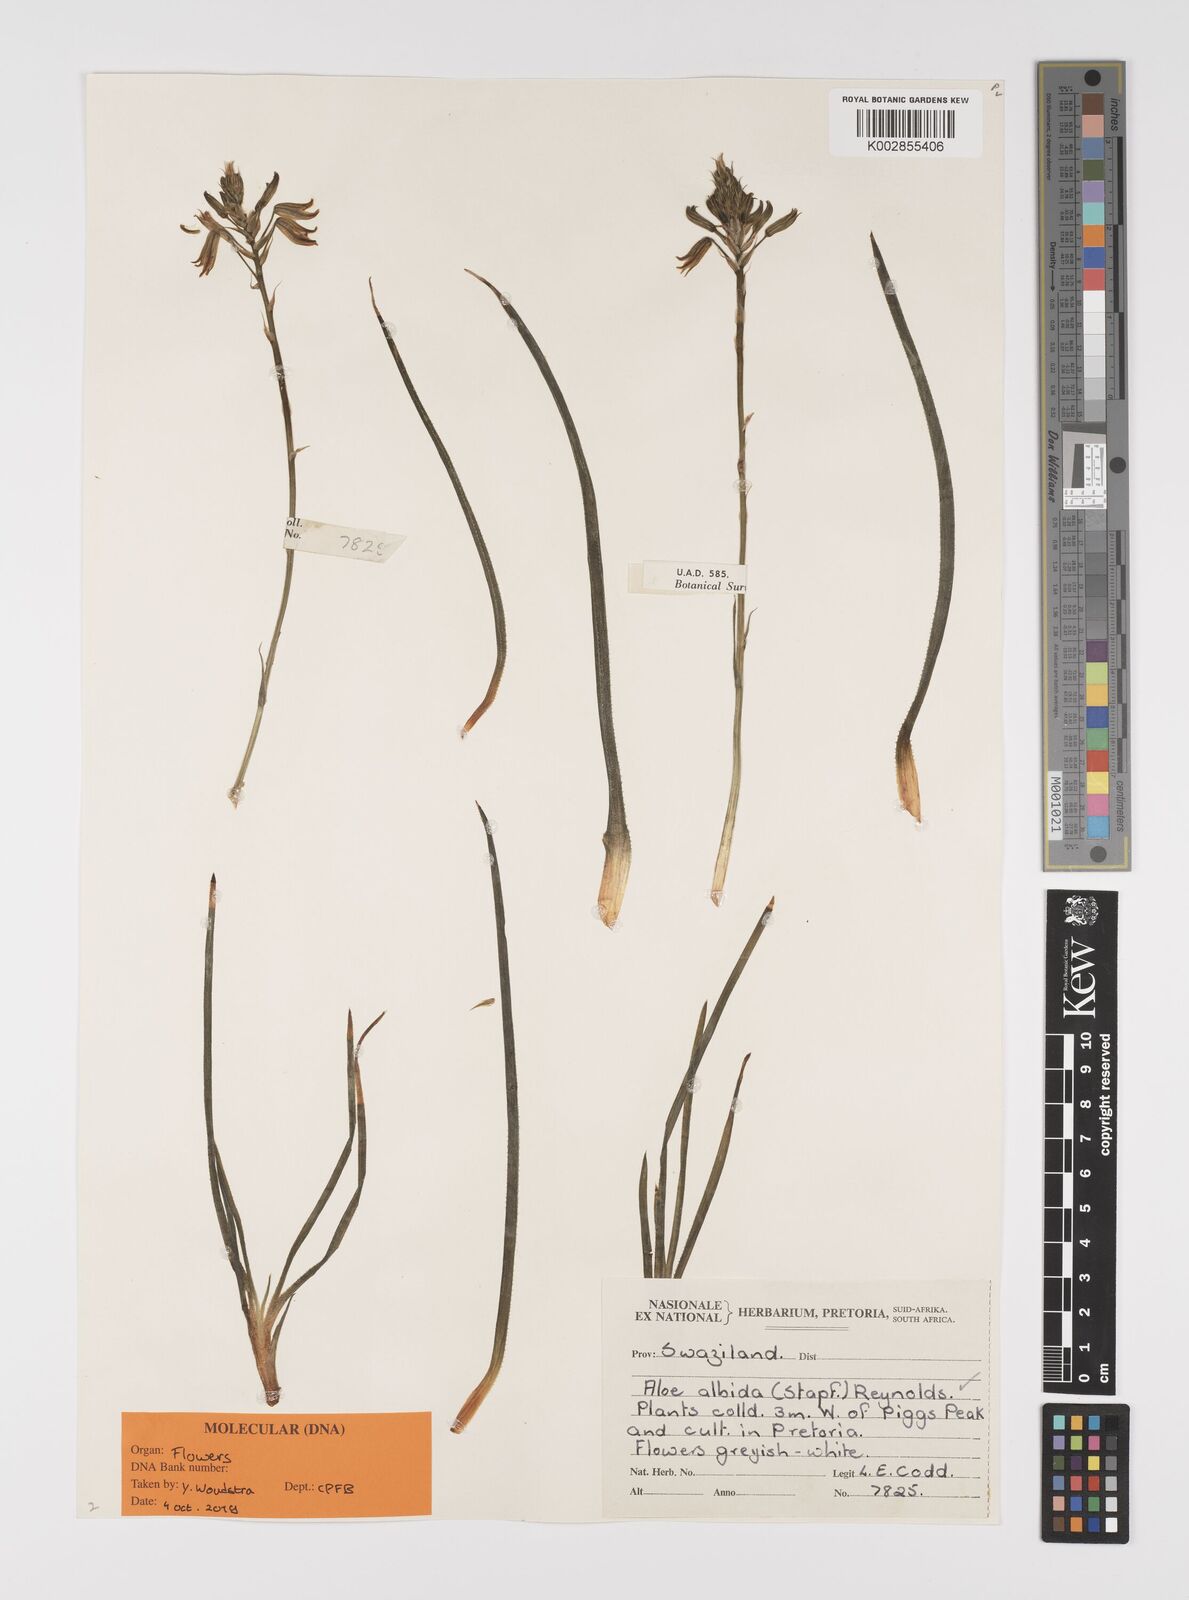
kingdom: Plantae
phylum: Tracheophyta
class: Liliopsida
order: Asparagales
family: Asphodelaceae
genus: Aloe
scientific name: Aloe albida
